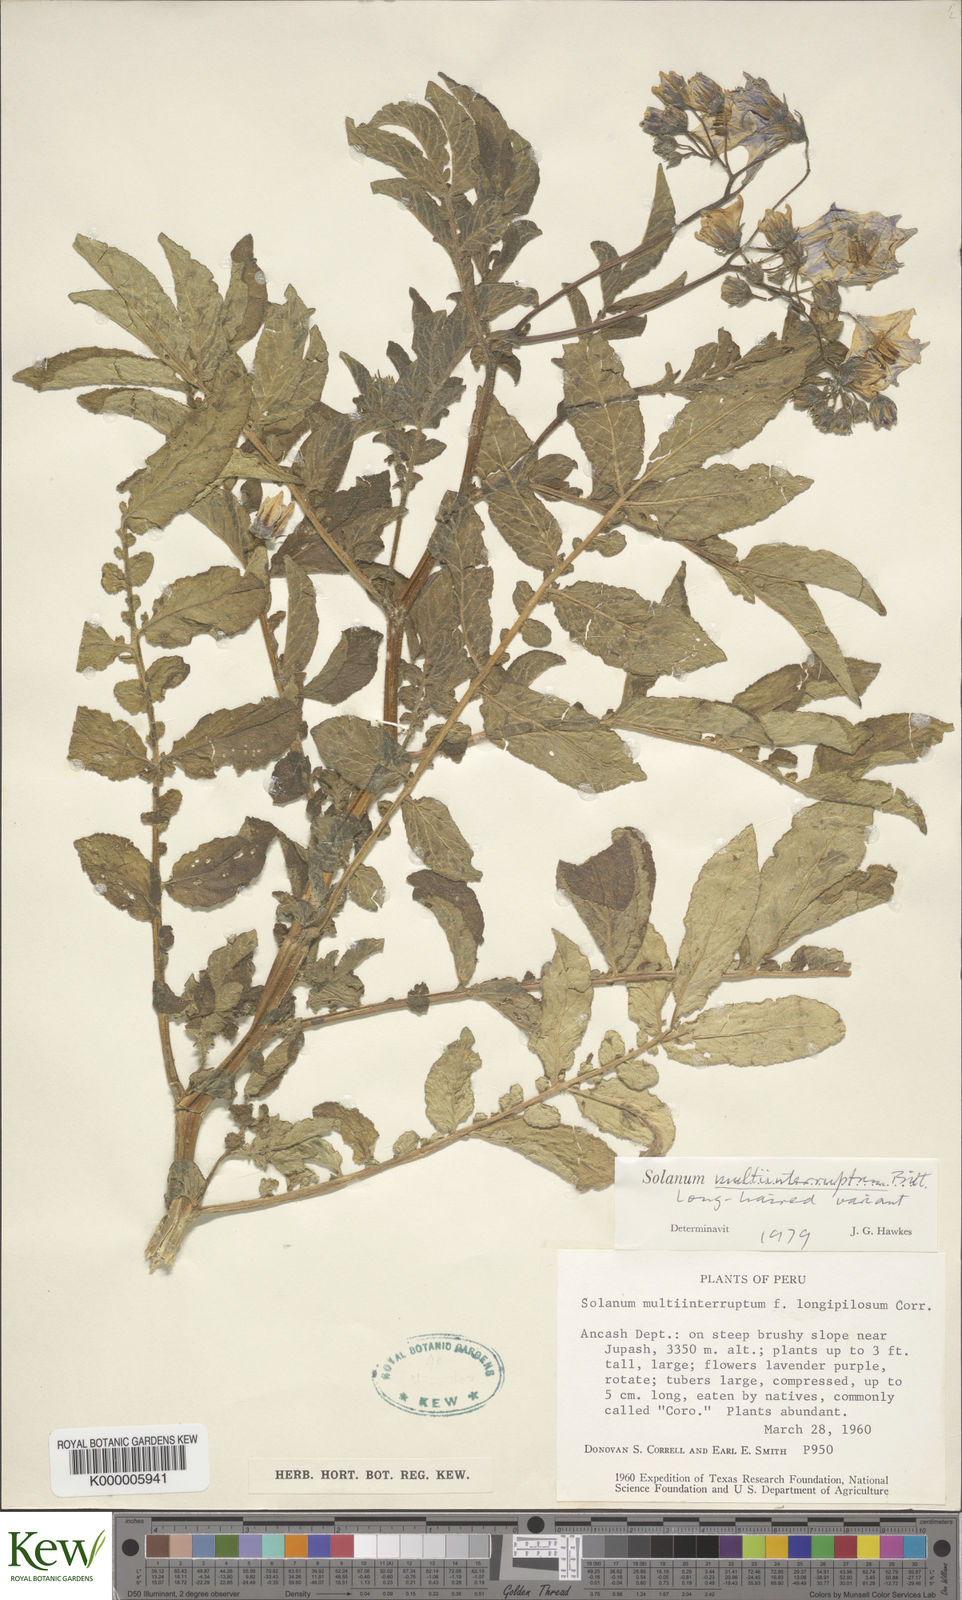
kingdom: Plantae
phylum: Tracheophyta
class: Magnoliopsida
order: Solanales
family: Solanaceae
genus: Solanum
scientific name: Solanum candolleanum
